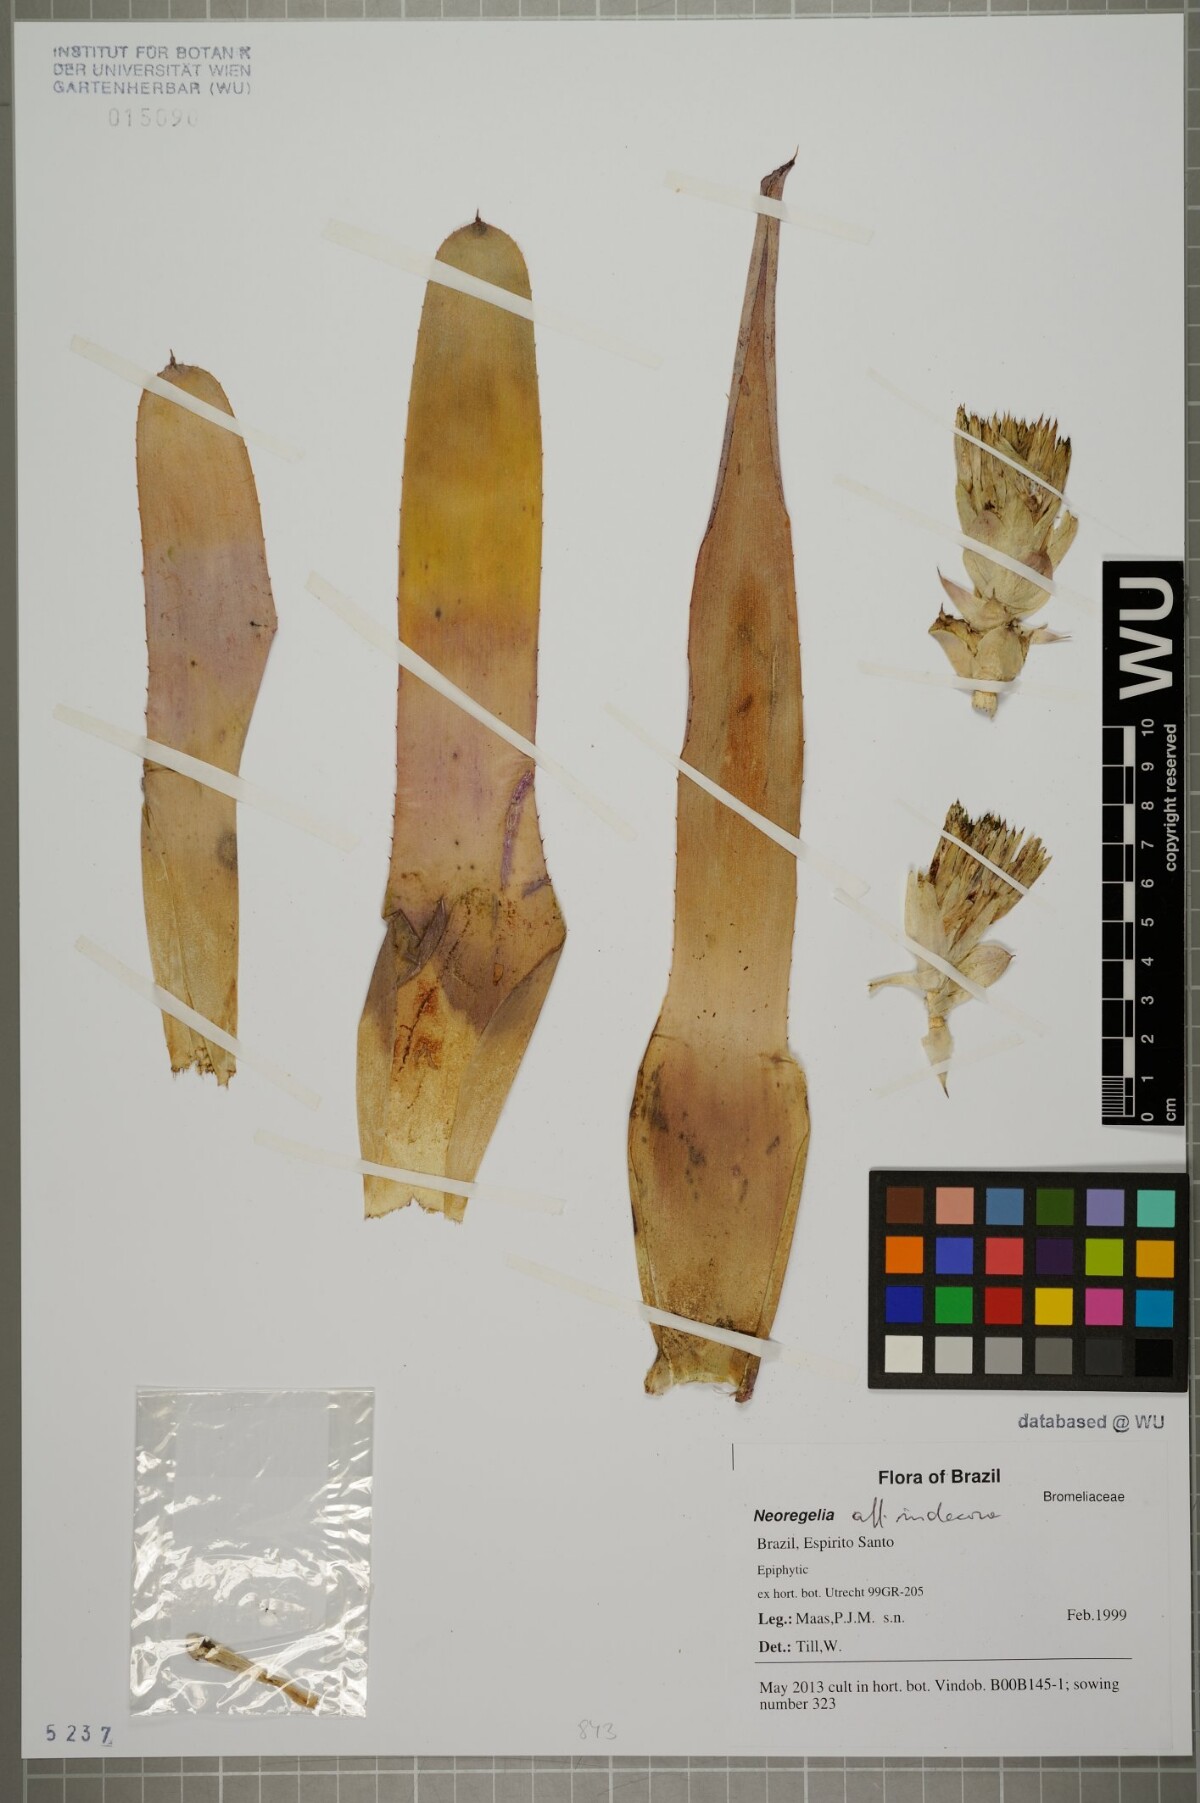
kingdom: Plantae
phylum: Tracheophyta
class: Liliopsida
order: Poales
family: Bromeliaceae
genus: Neoregelia
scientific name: Neoregelia indecora
